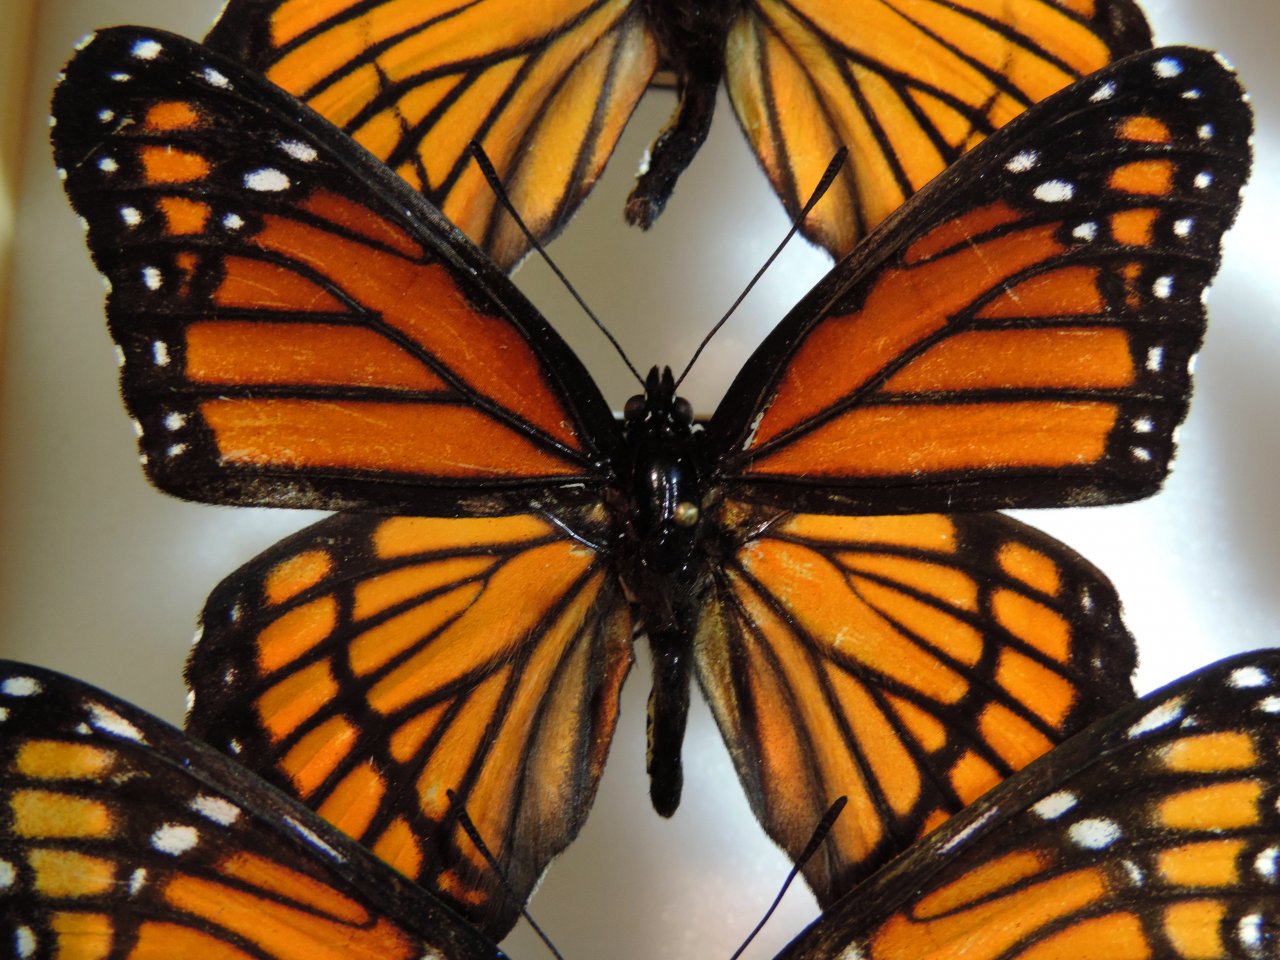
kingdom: Animalia
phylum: Arthropoda
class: Insecta
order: Lepidoptera
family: Nymphalidae
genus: Limenitis
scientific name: Limenitis archippus
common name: Viceroy
